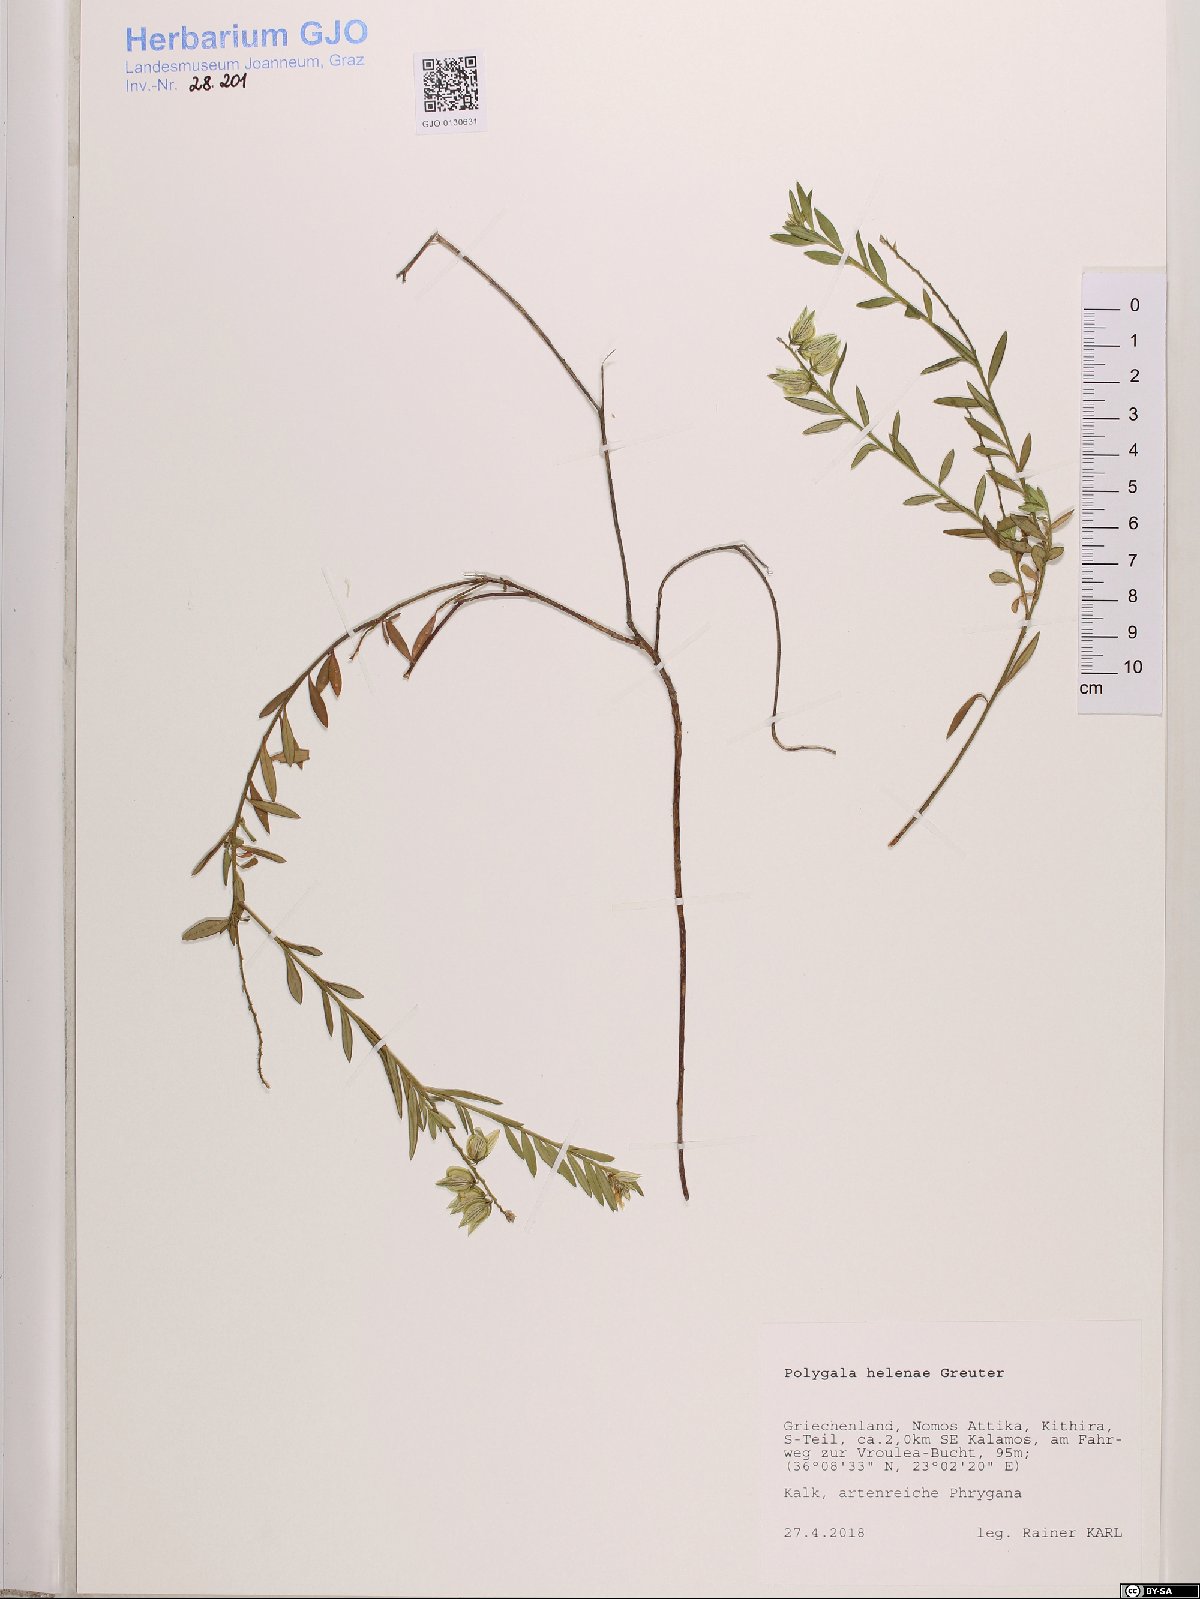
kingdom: Plantae
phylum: Tracheophyta
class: Magnoliopsida
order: Fabales
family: Polygalaceae
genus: Polygala
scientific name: Polygala helenae
